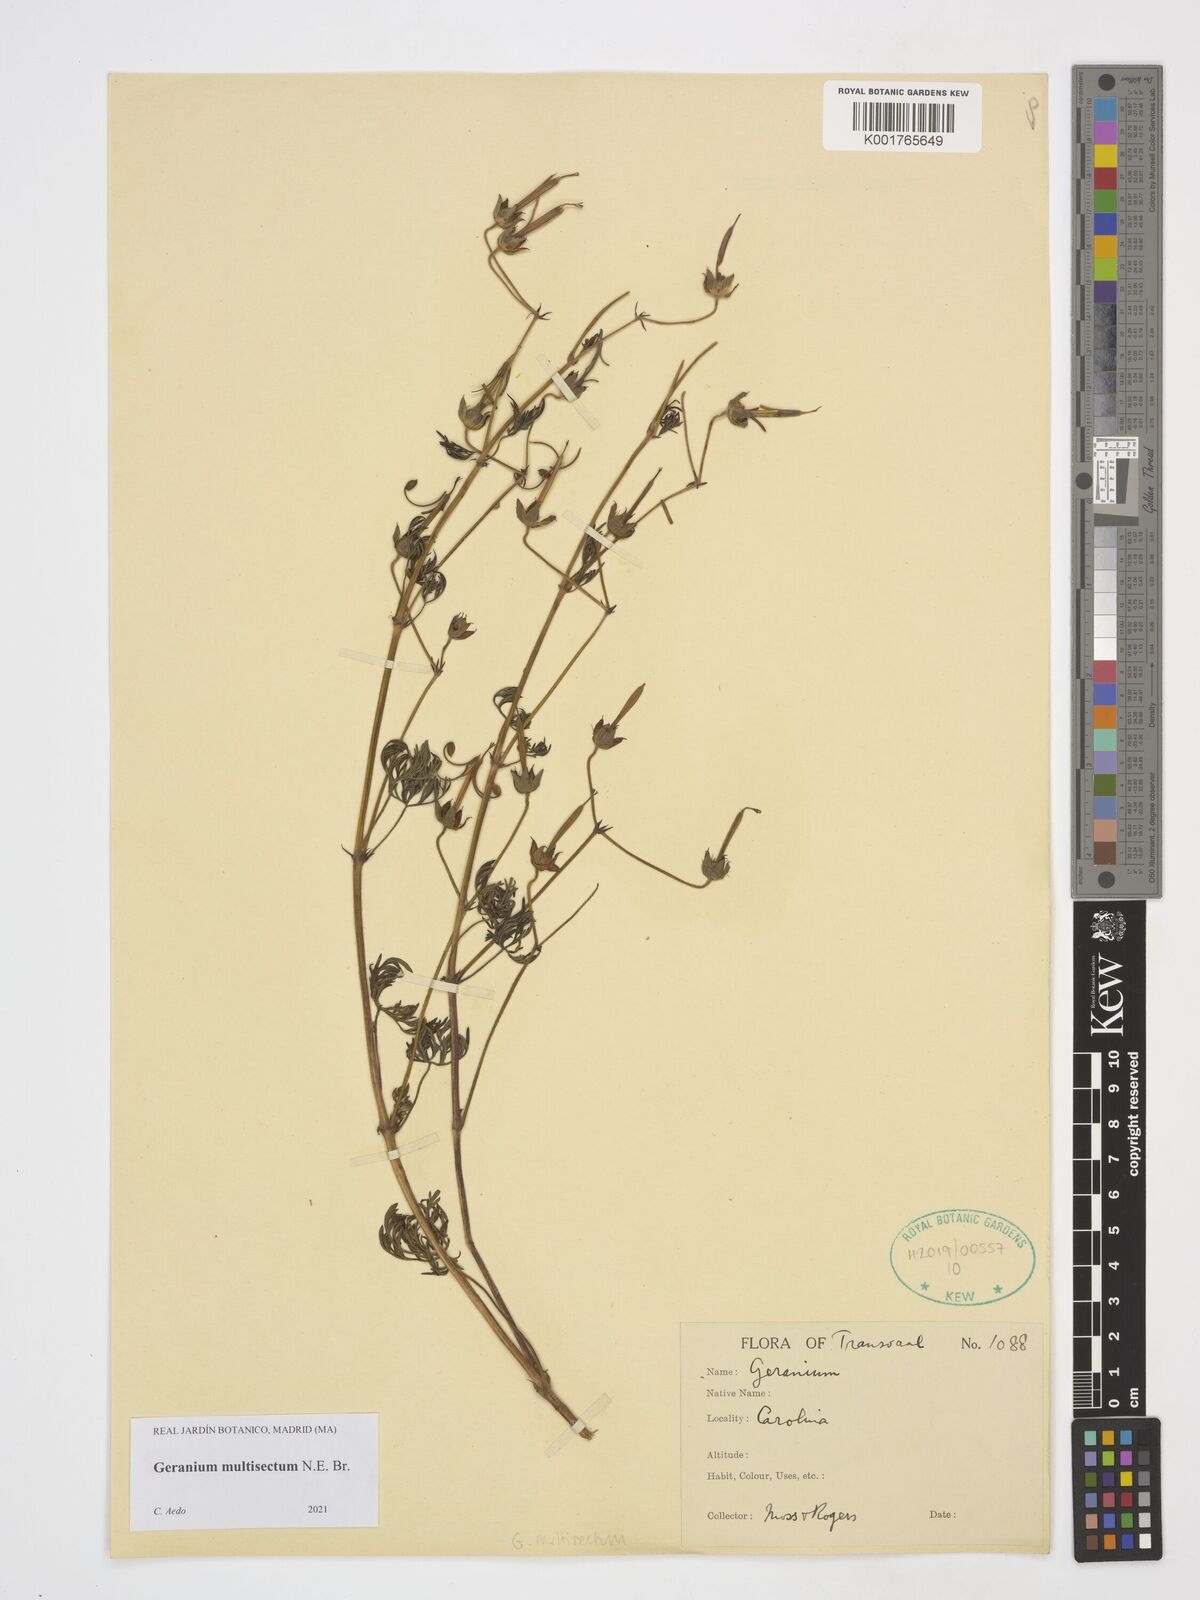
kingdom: Plantae
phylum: Tracheophyta
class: Magnoliopsida
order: Geraniales
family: Geraniaceae
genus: Geranium
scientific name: Geranium multisectum
